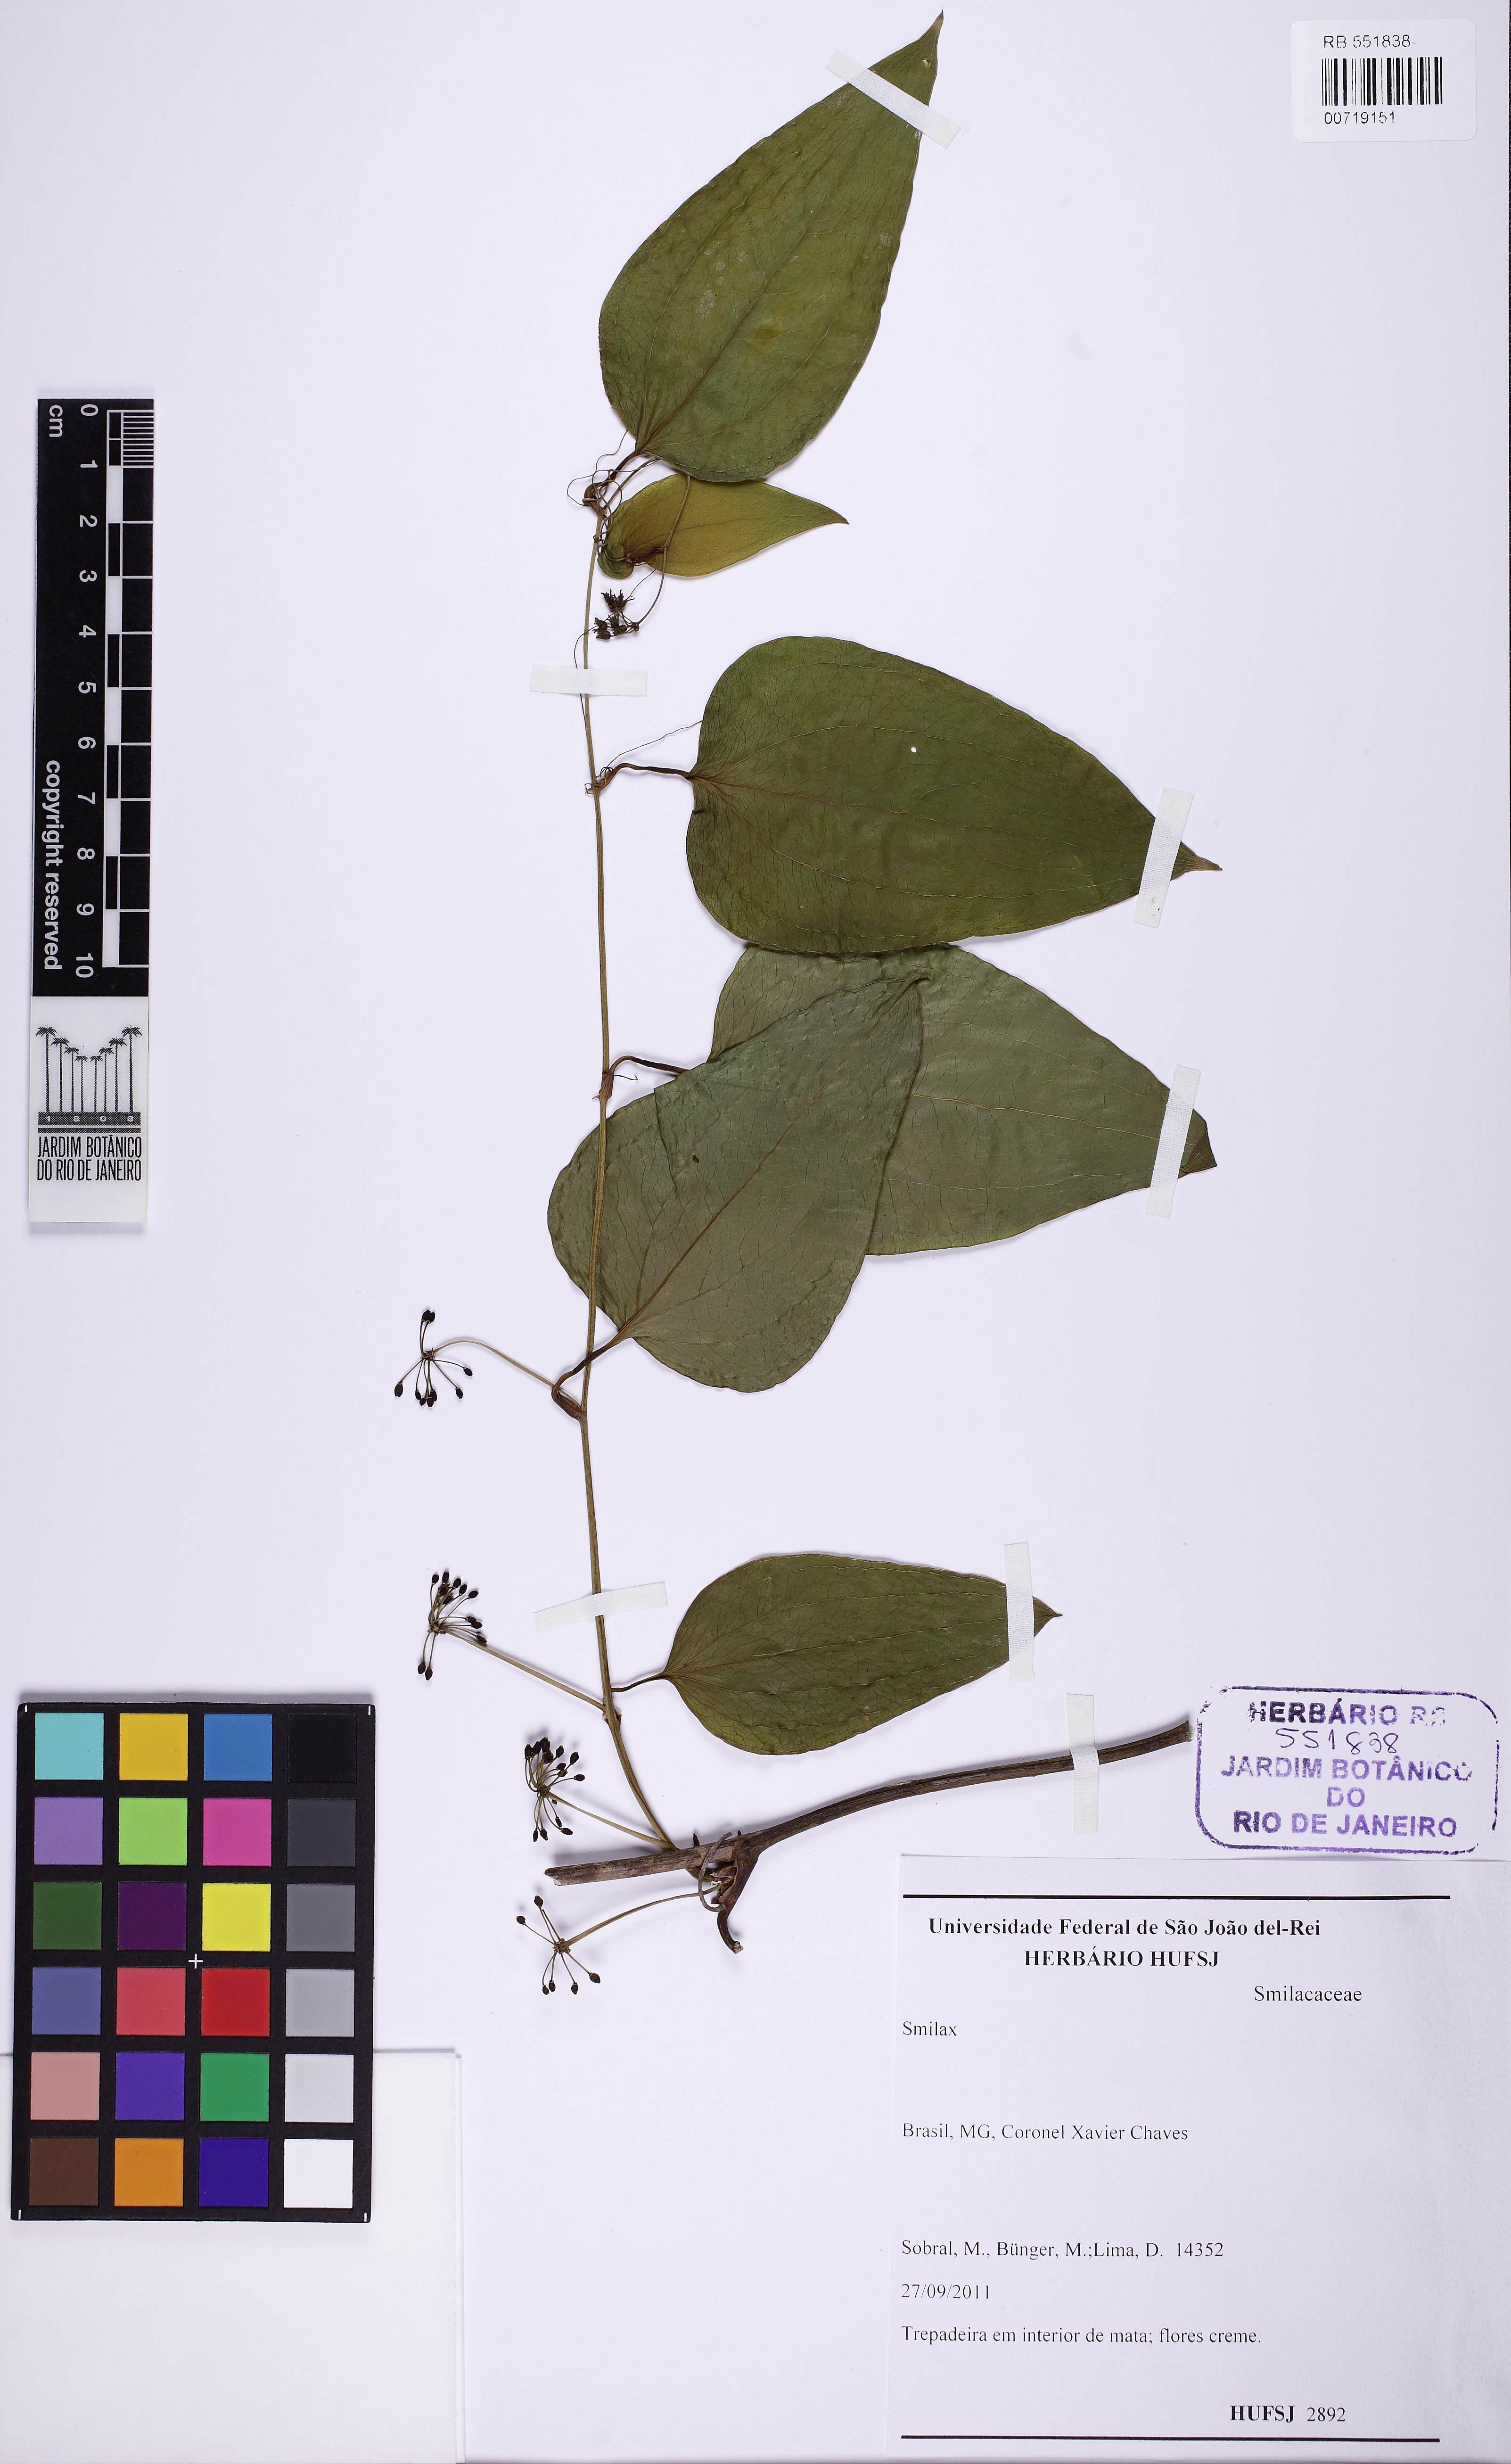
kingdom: Plantae
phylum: Tracheophyta
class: Liliopsida
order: Liliales
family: Smilacaceae
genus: Smilax
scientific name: Smilax
